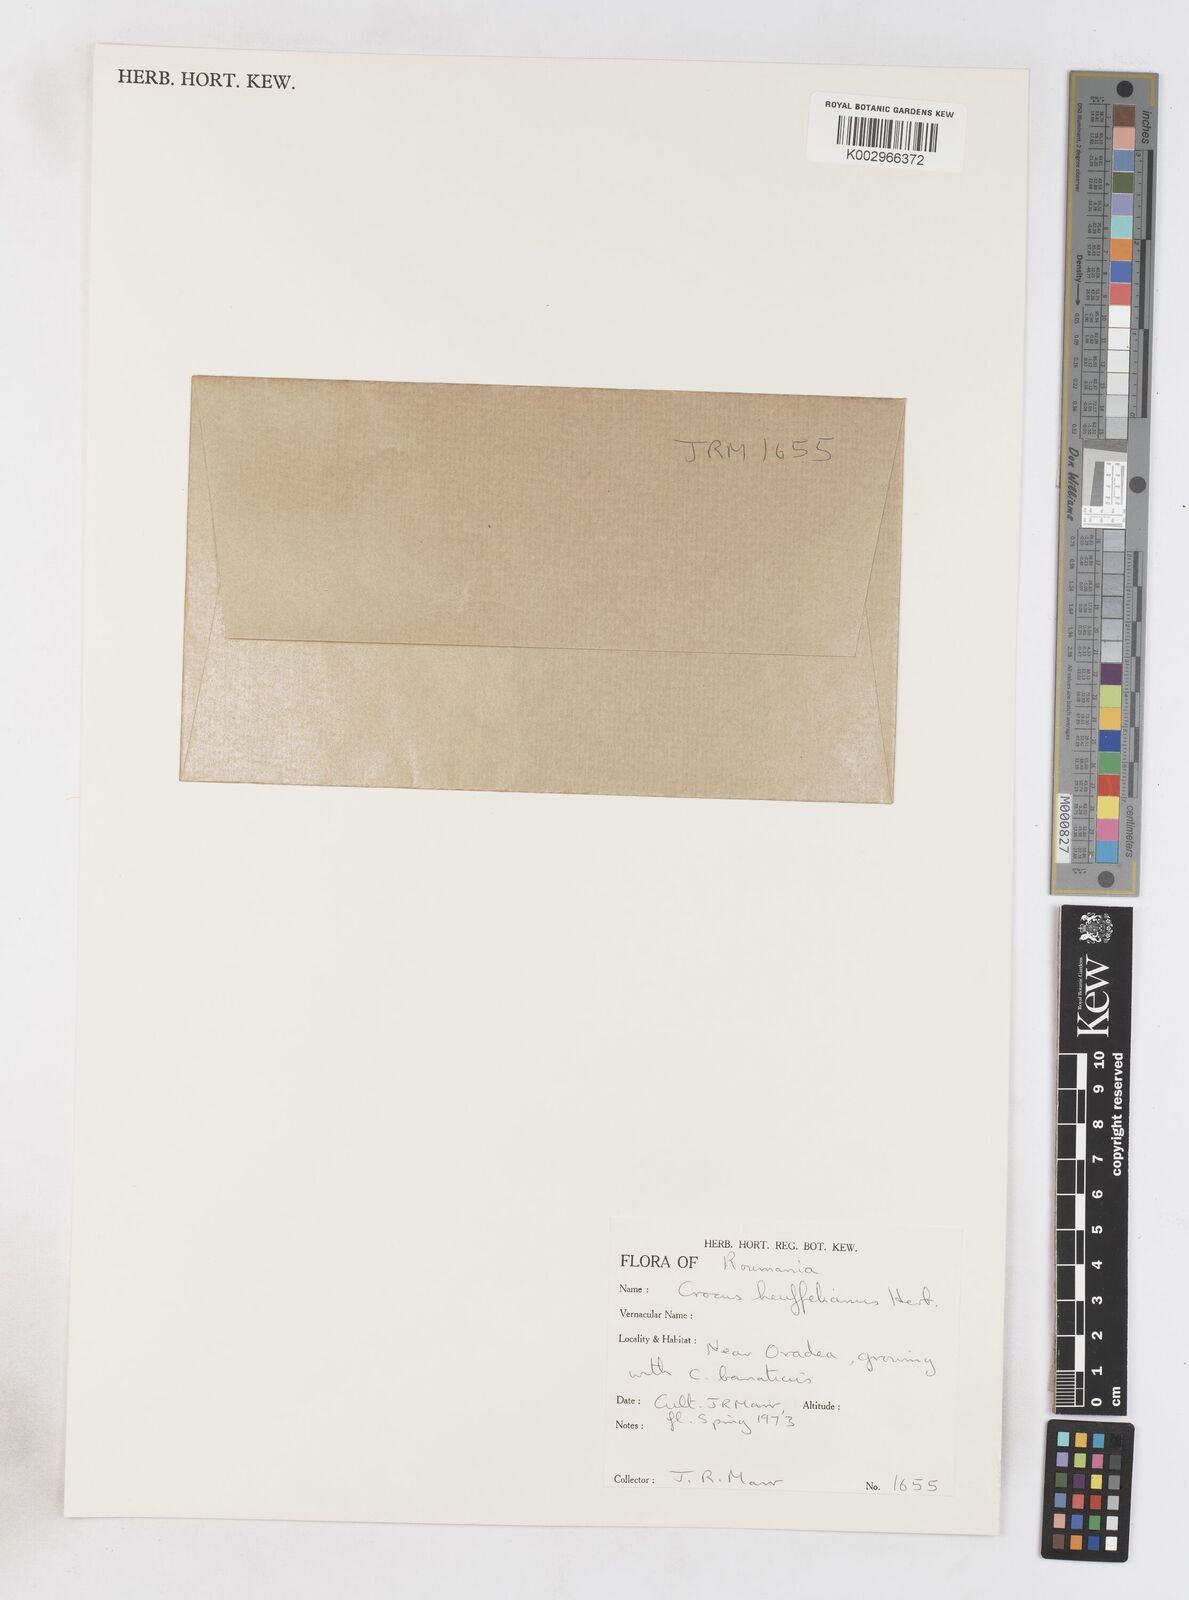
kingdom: Plantae
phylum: Tracheophyta
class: Liliopsida
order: Asparagales
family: Iridaceae
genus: Crocus
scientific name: Crocus vernus
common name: Spring crocus
